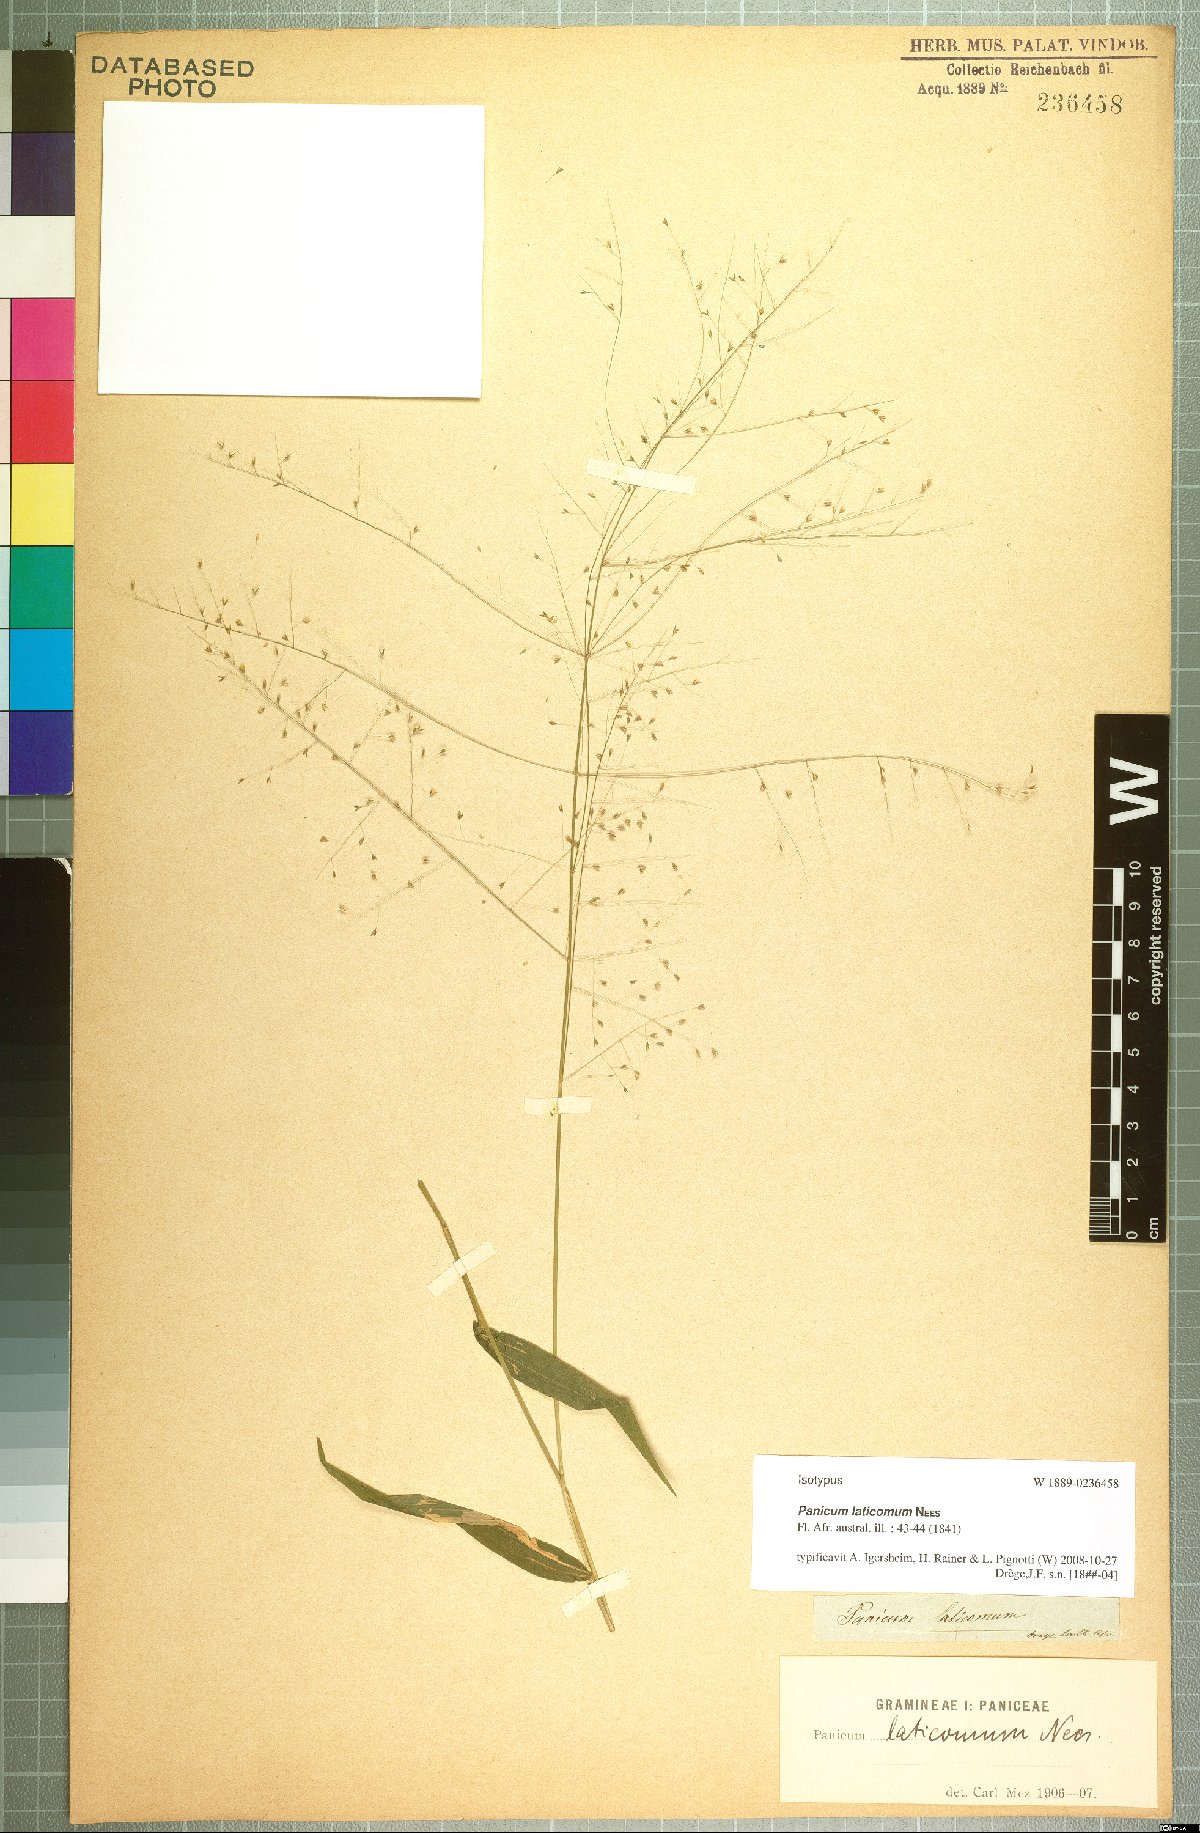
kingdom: Plantae
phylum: Tracheophyta
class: Liliopsida
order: Poales
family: Poaceae
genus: Panicum
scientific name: Panicum laticomum
